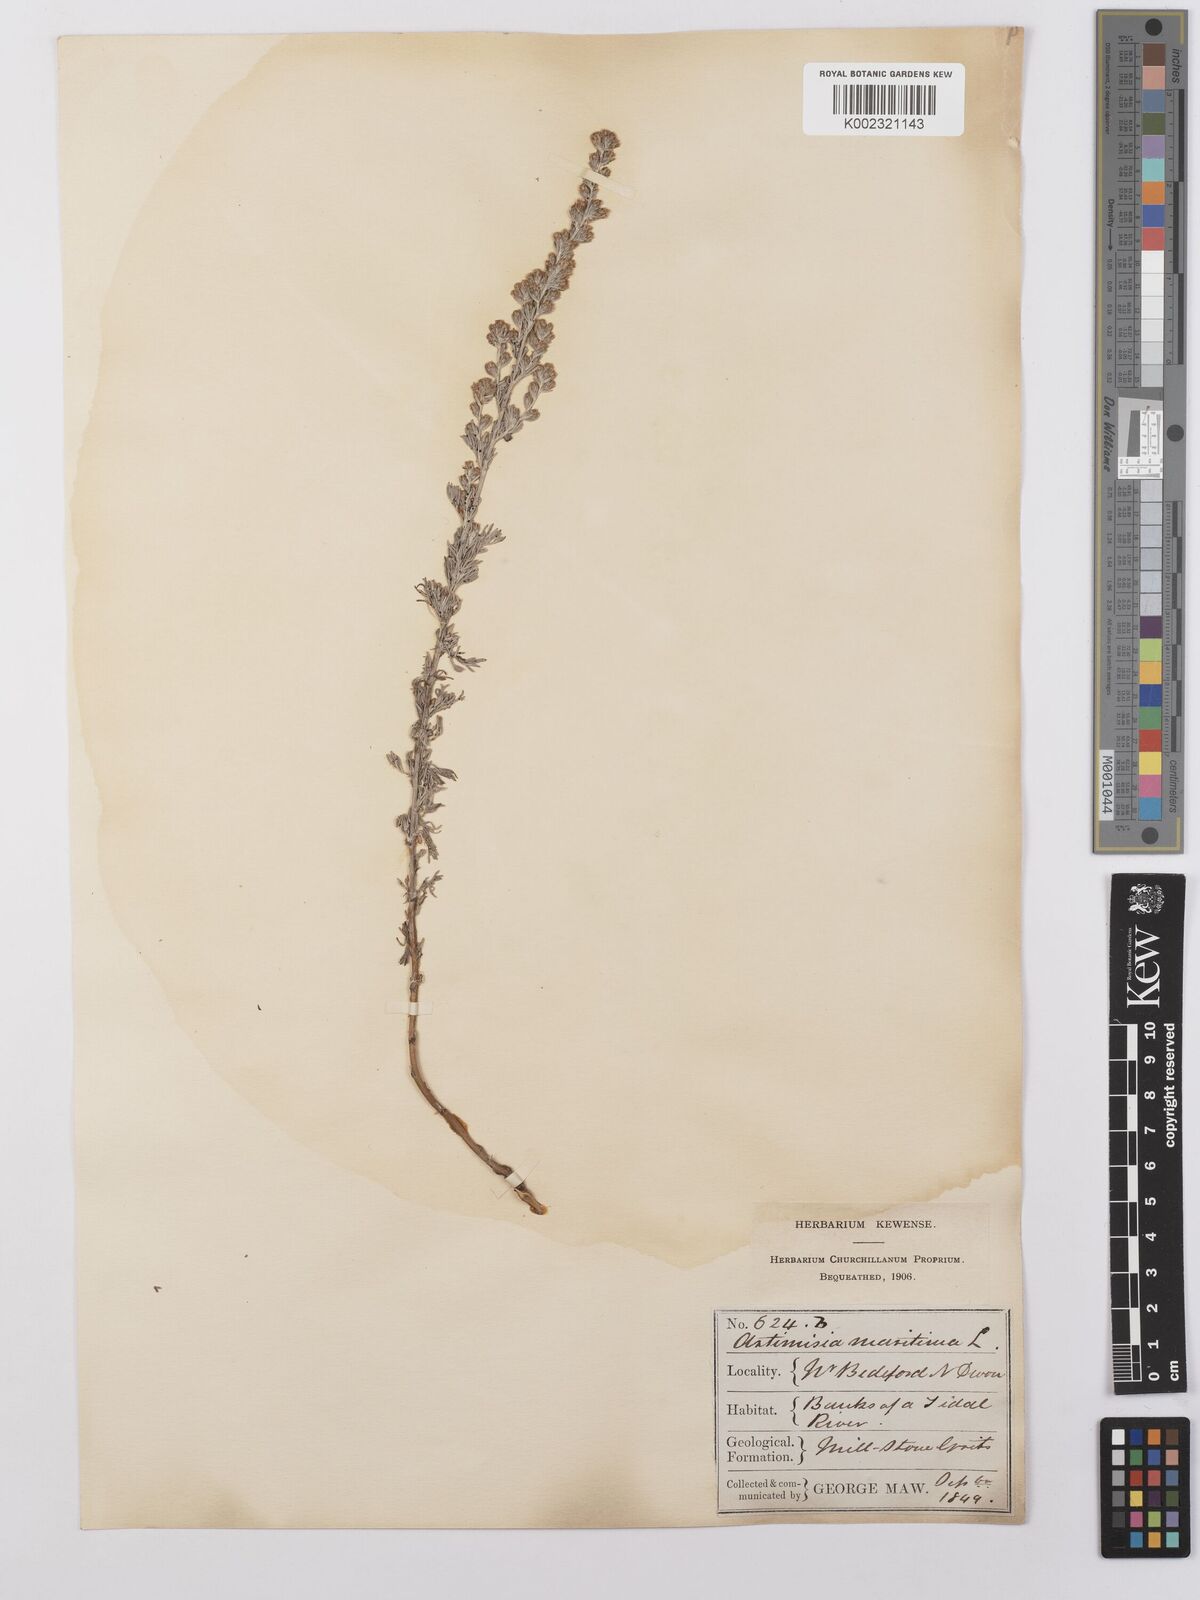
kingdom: Plantae
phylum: Tracheophyta
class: Magnoliopsida
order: Asterales
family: Asteraceae
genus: Artemisia
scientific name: Artemisia maritima
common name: Wormseed
